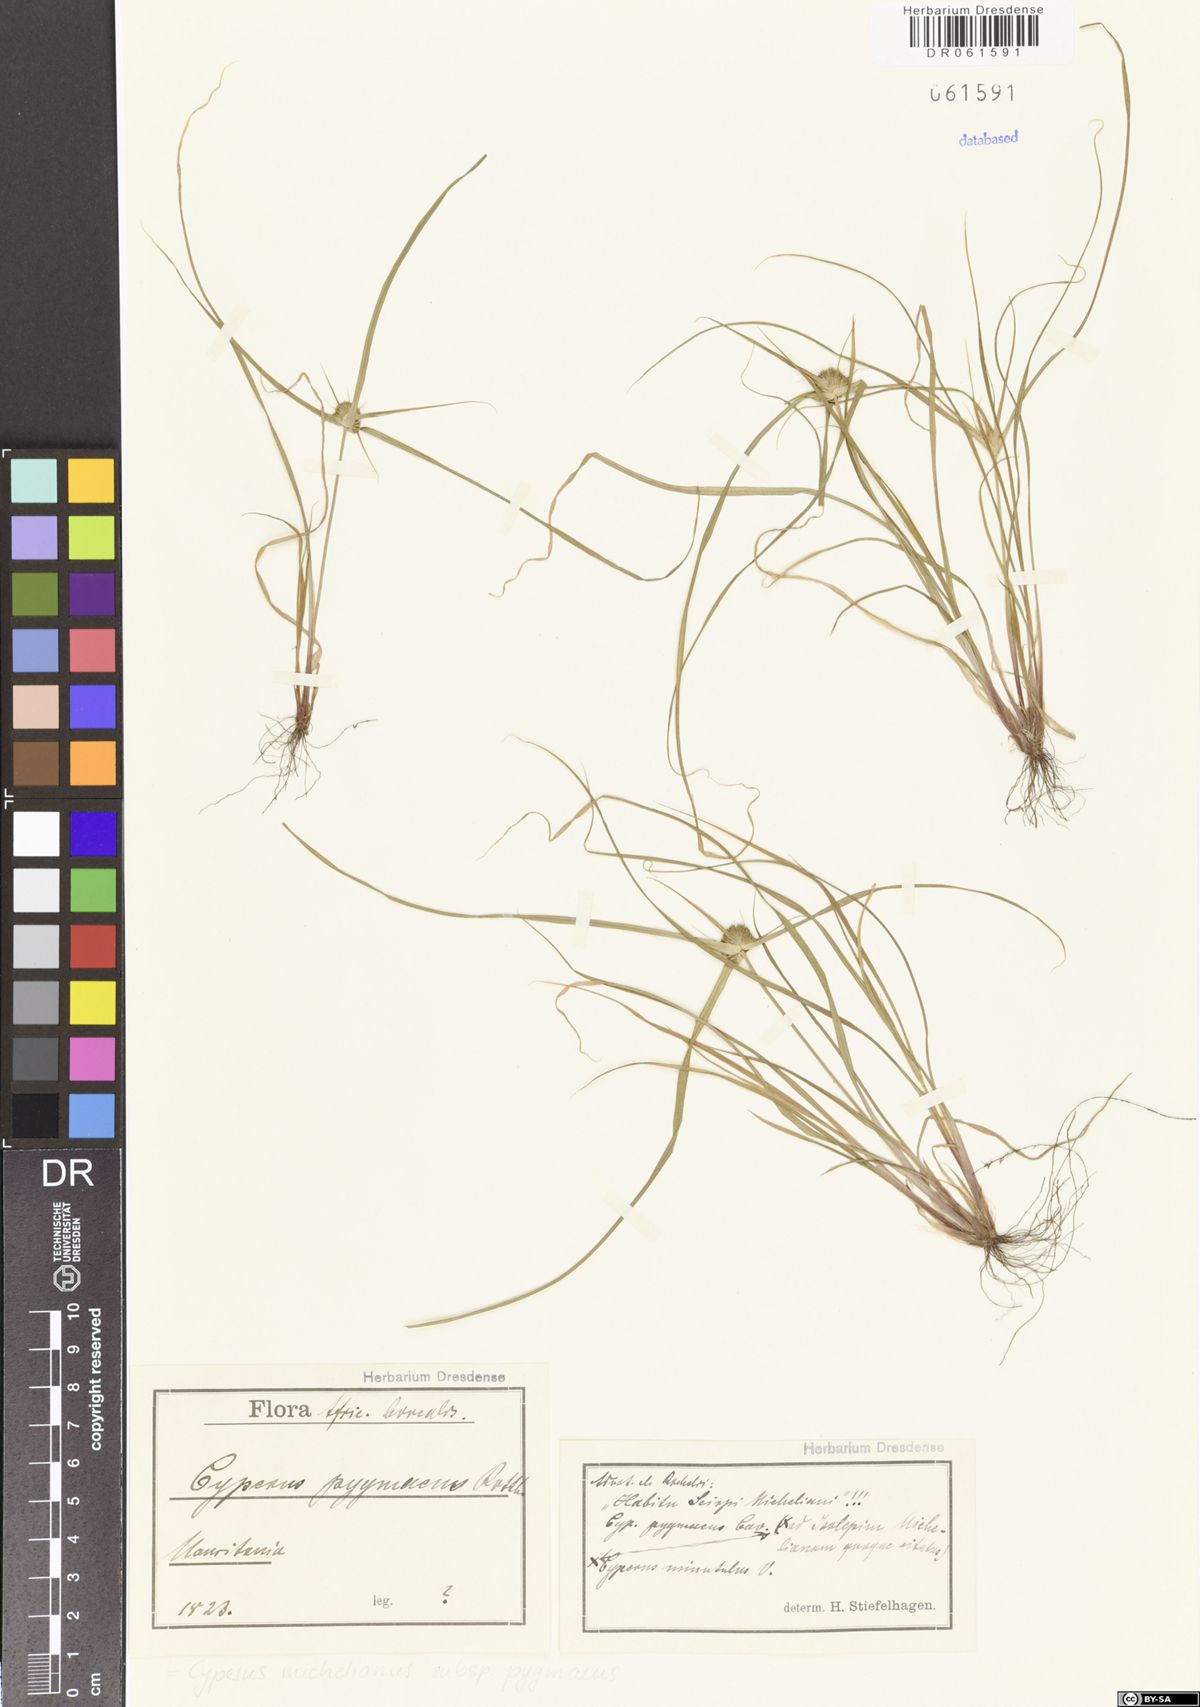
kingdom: Plantae
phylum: Tracheophyta
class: Liliopsida
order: Poales
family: Cyperaceae
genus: Cyperus
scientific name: Cyperus michelianus
